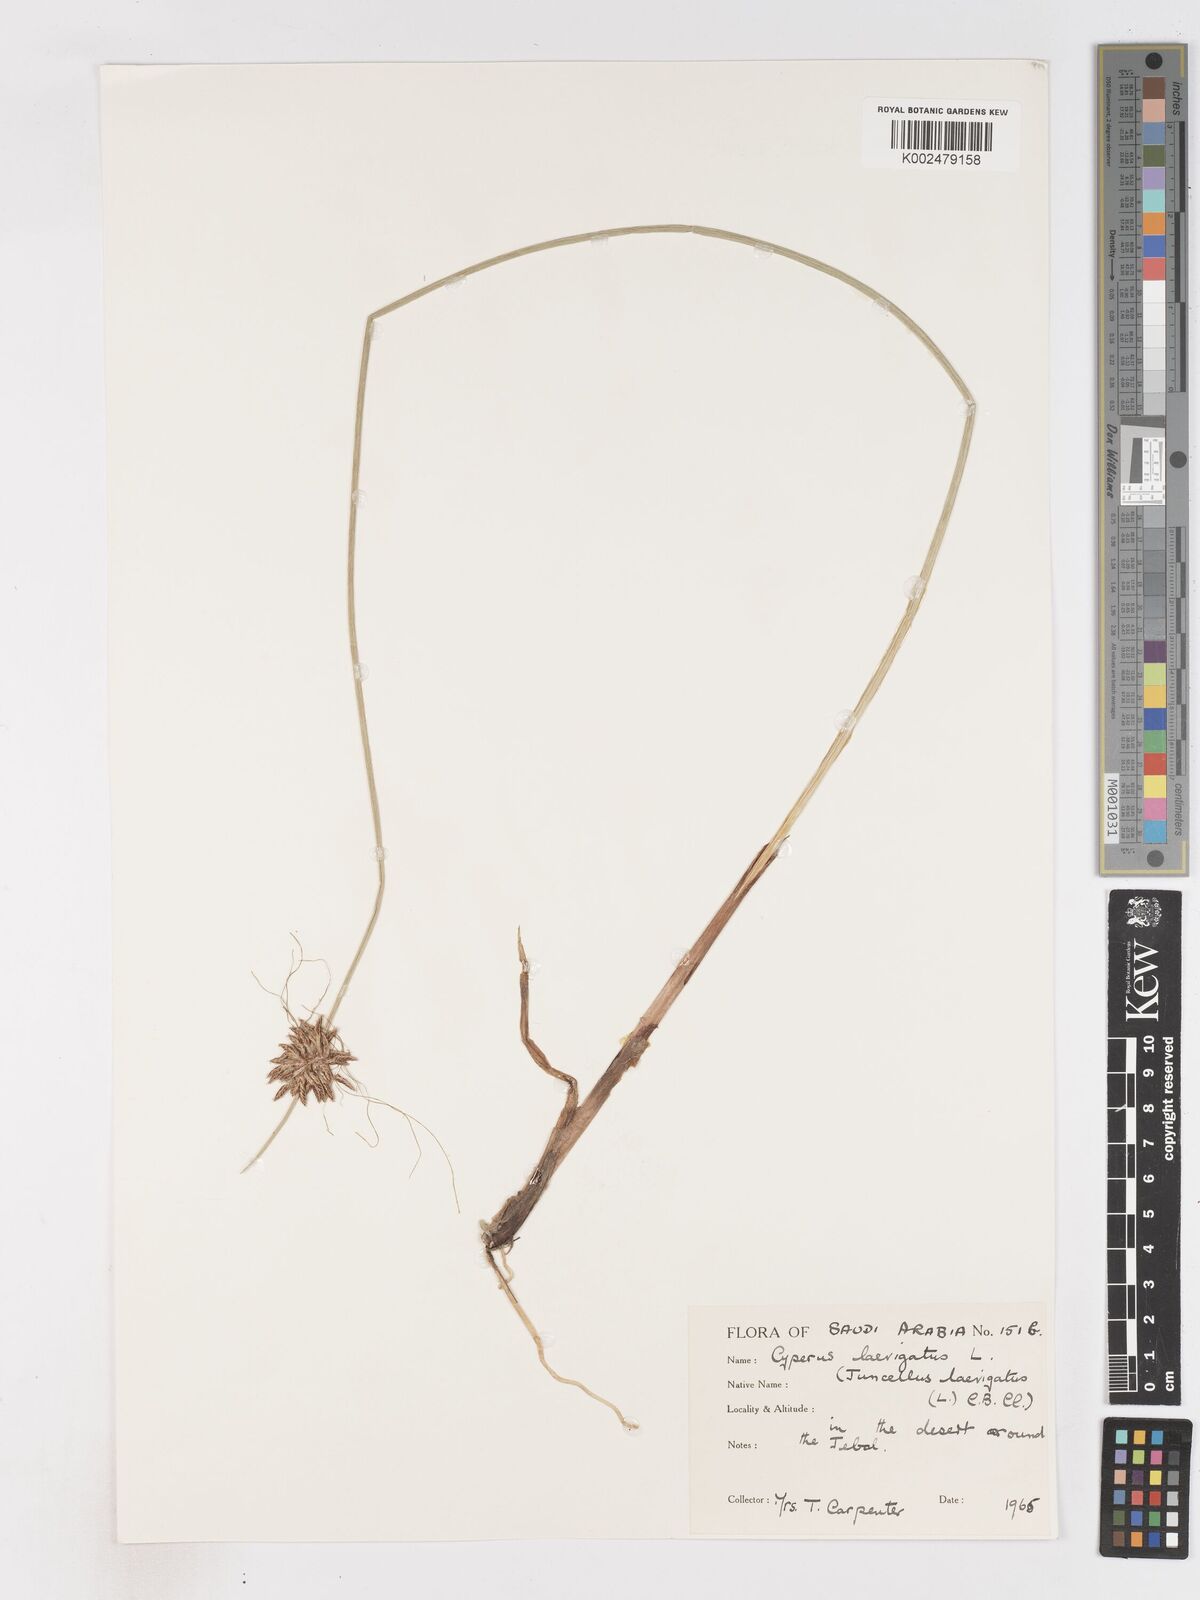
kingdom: Plantae
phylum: Tracheophyta
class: Liliopsida
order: Poales
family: Cyperaceae
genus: Cyperus
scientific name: Cyperus laevigatus
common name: Smooth flat sedge
